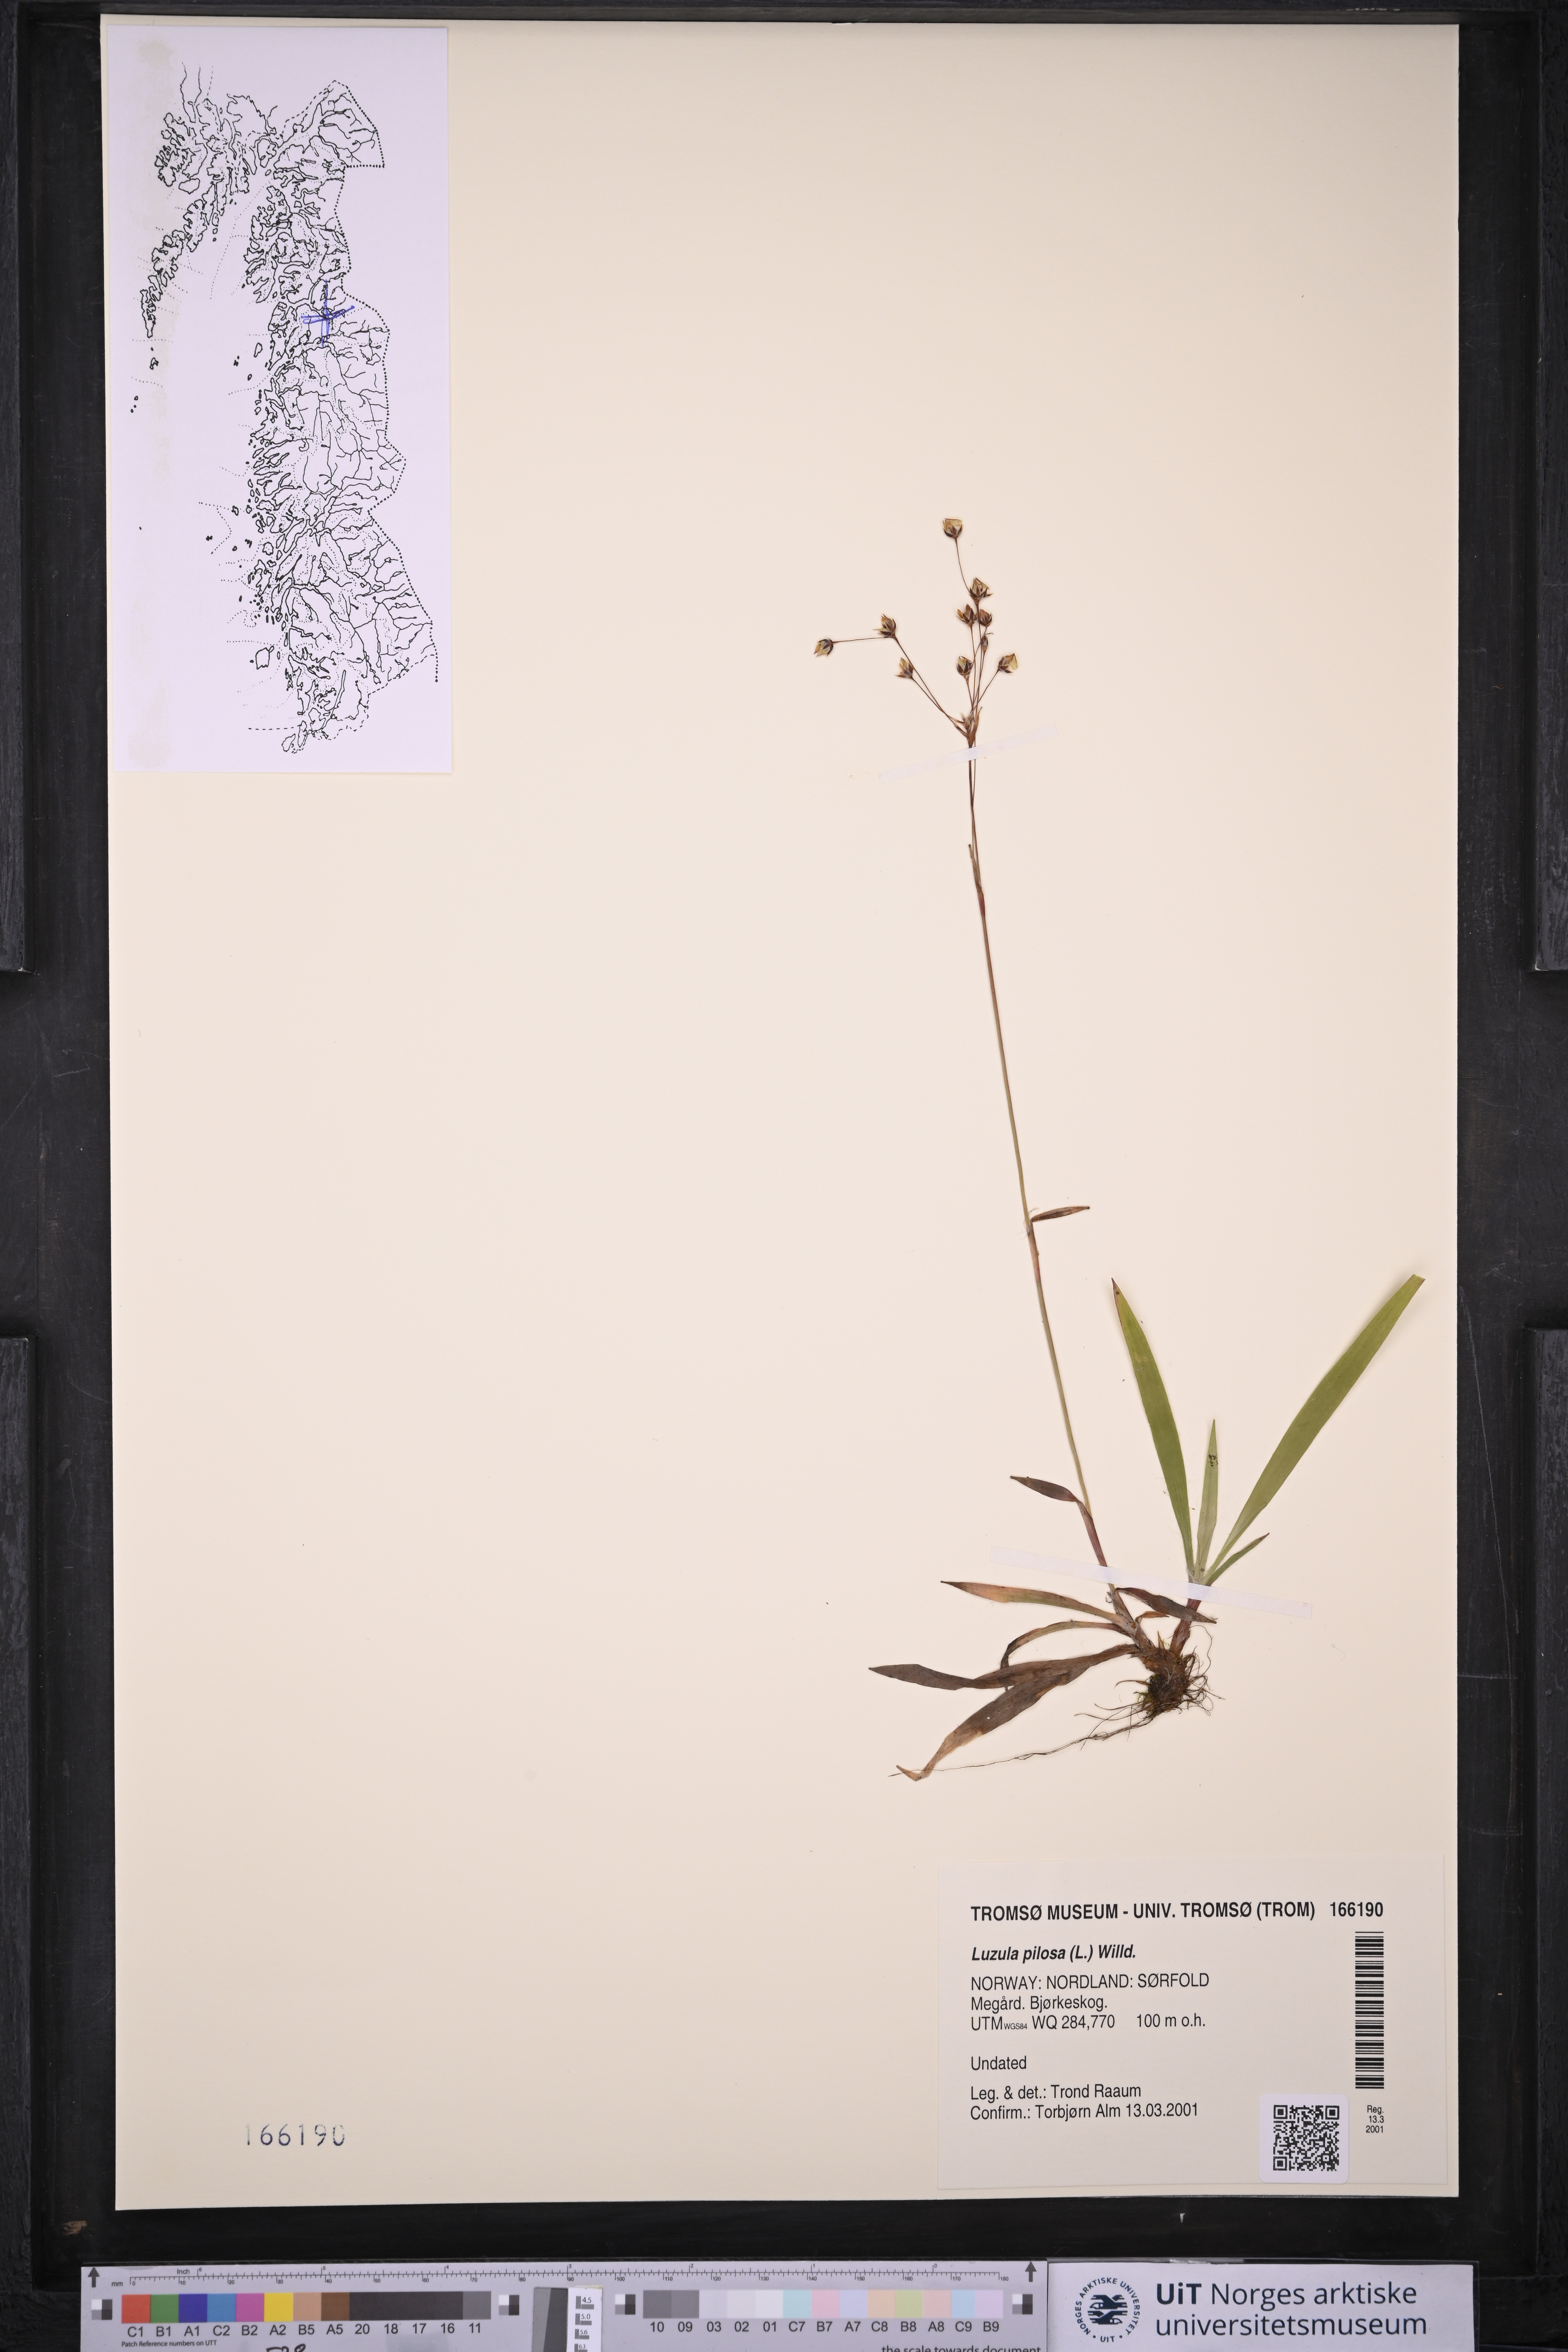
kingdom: Plantae
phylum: Tracheophyta
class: Liliopsida
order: Poales
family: Juncaceae
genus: Luzula
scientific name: Luzula pilosa
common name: Hairy wood-rush
